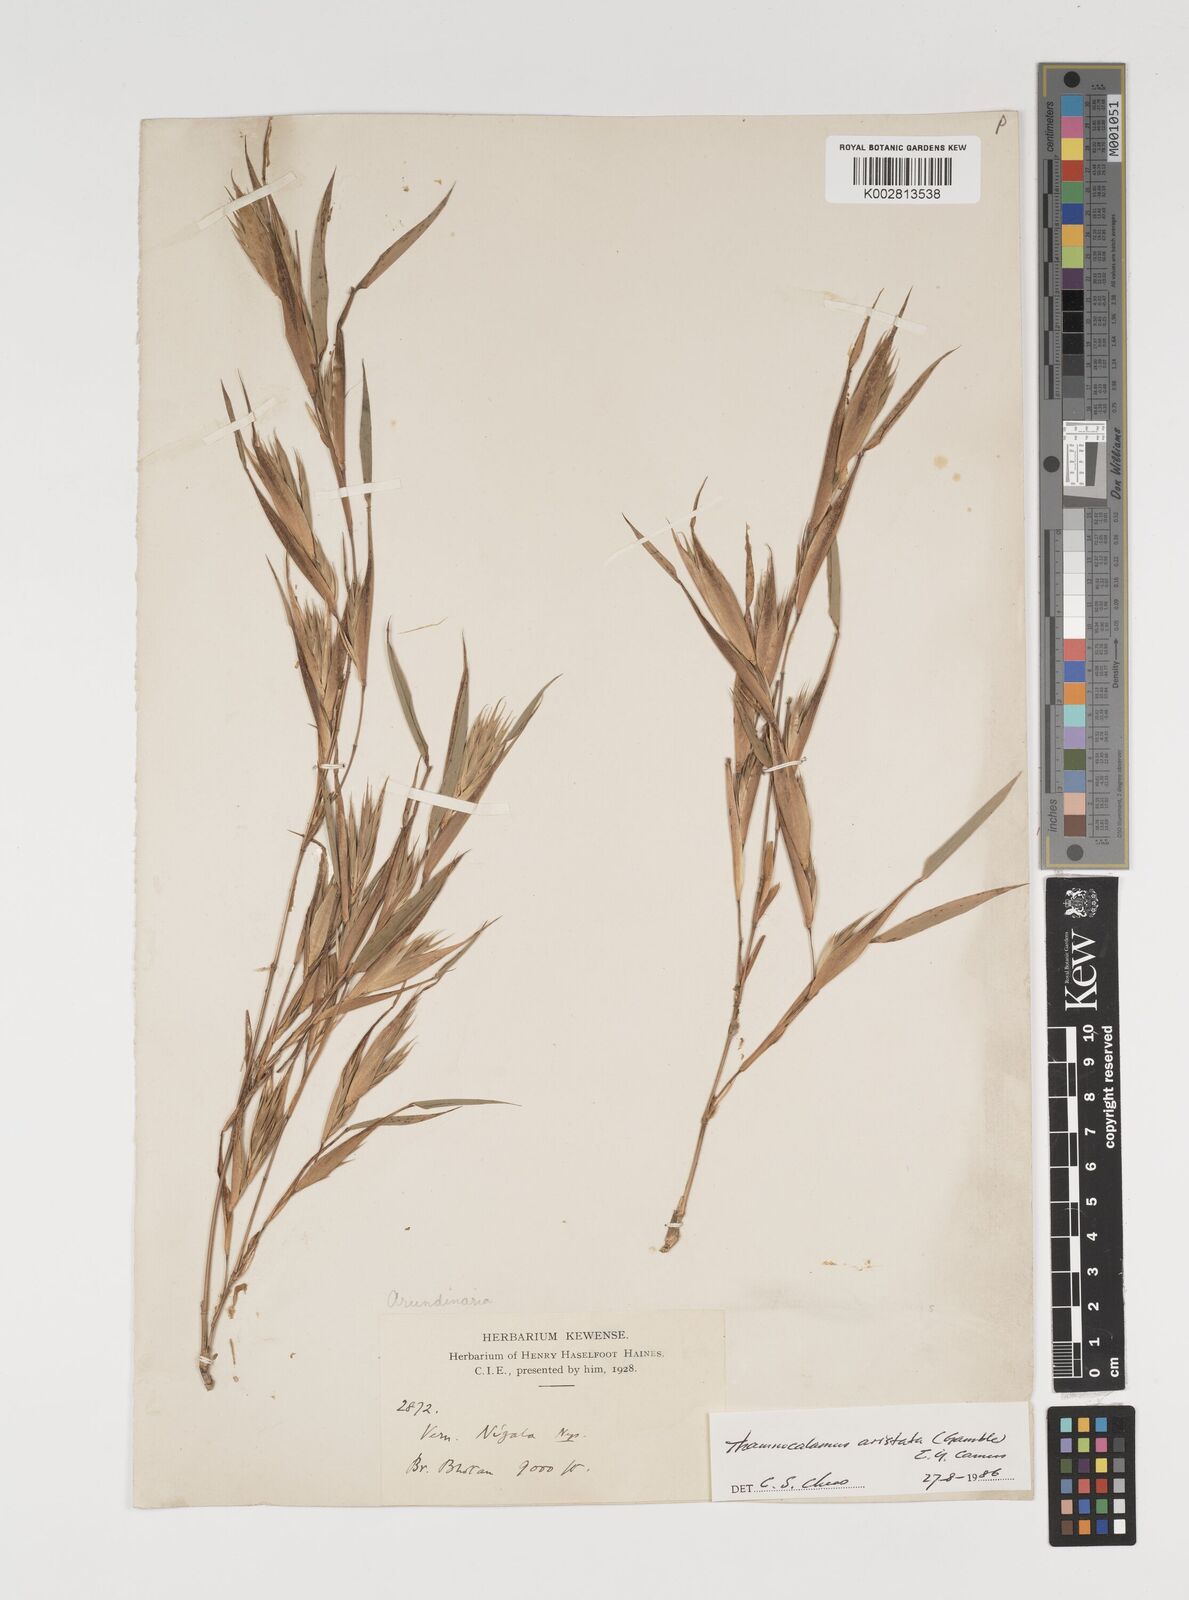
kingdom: Plantae
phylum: Tracheophyta
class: Liliopsida
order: Poales
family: Poaceae
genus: Thamnocalamus
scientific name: Thamnocalamus spathiflorus
